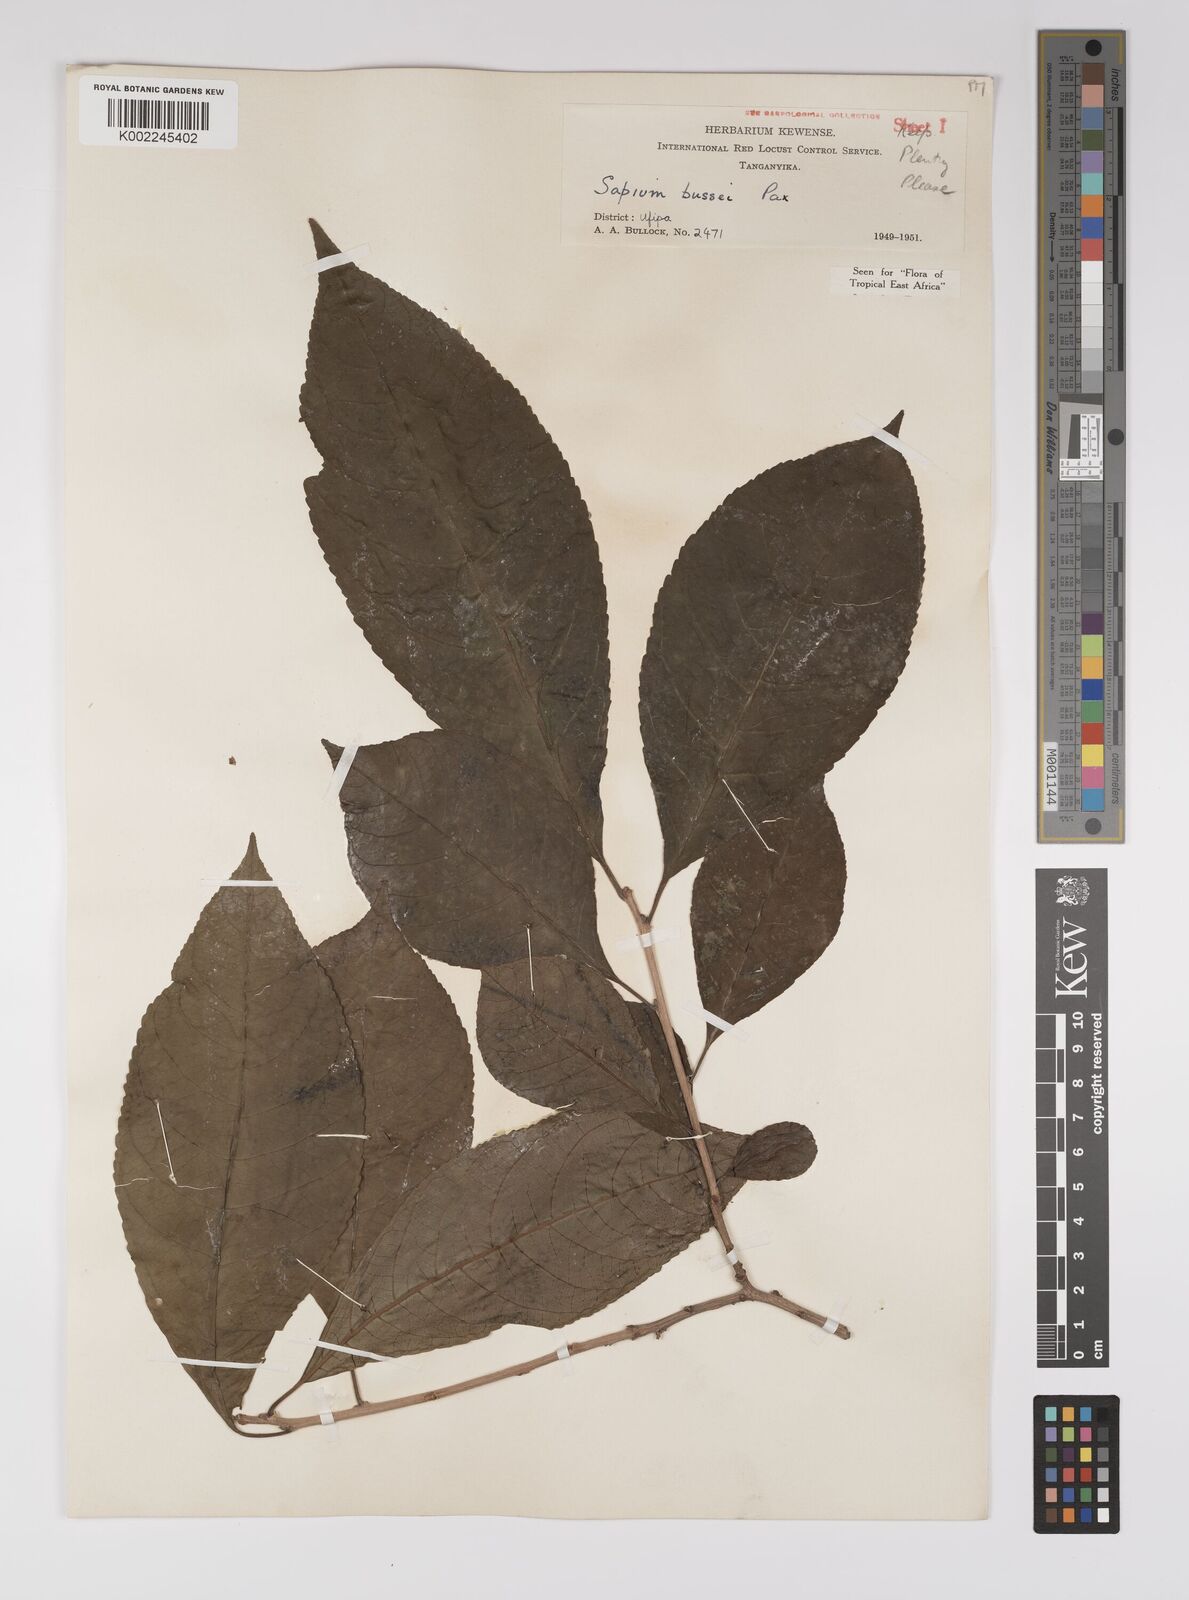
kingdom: Plantae
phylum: Tracheophyta
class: Magnoliopsida
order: Malpighiales
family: Euphorbiaceae
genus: Excoecaria
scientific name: Excoecaria bussei
